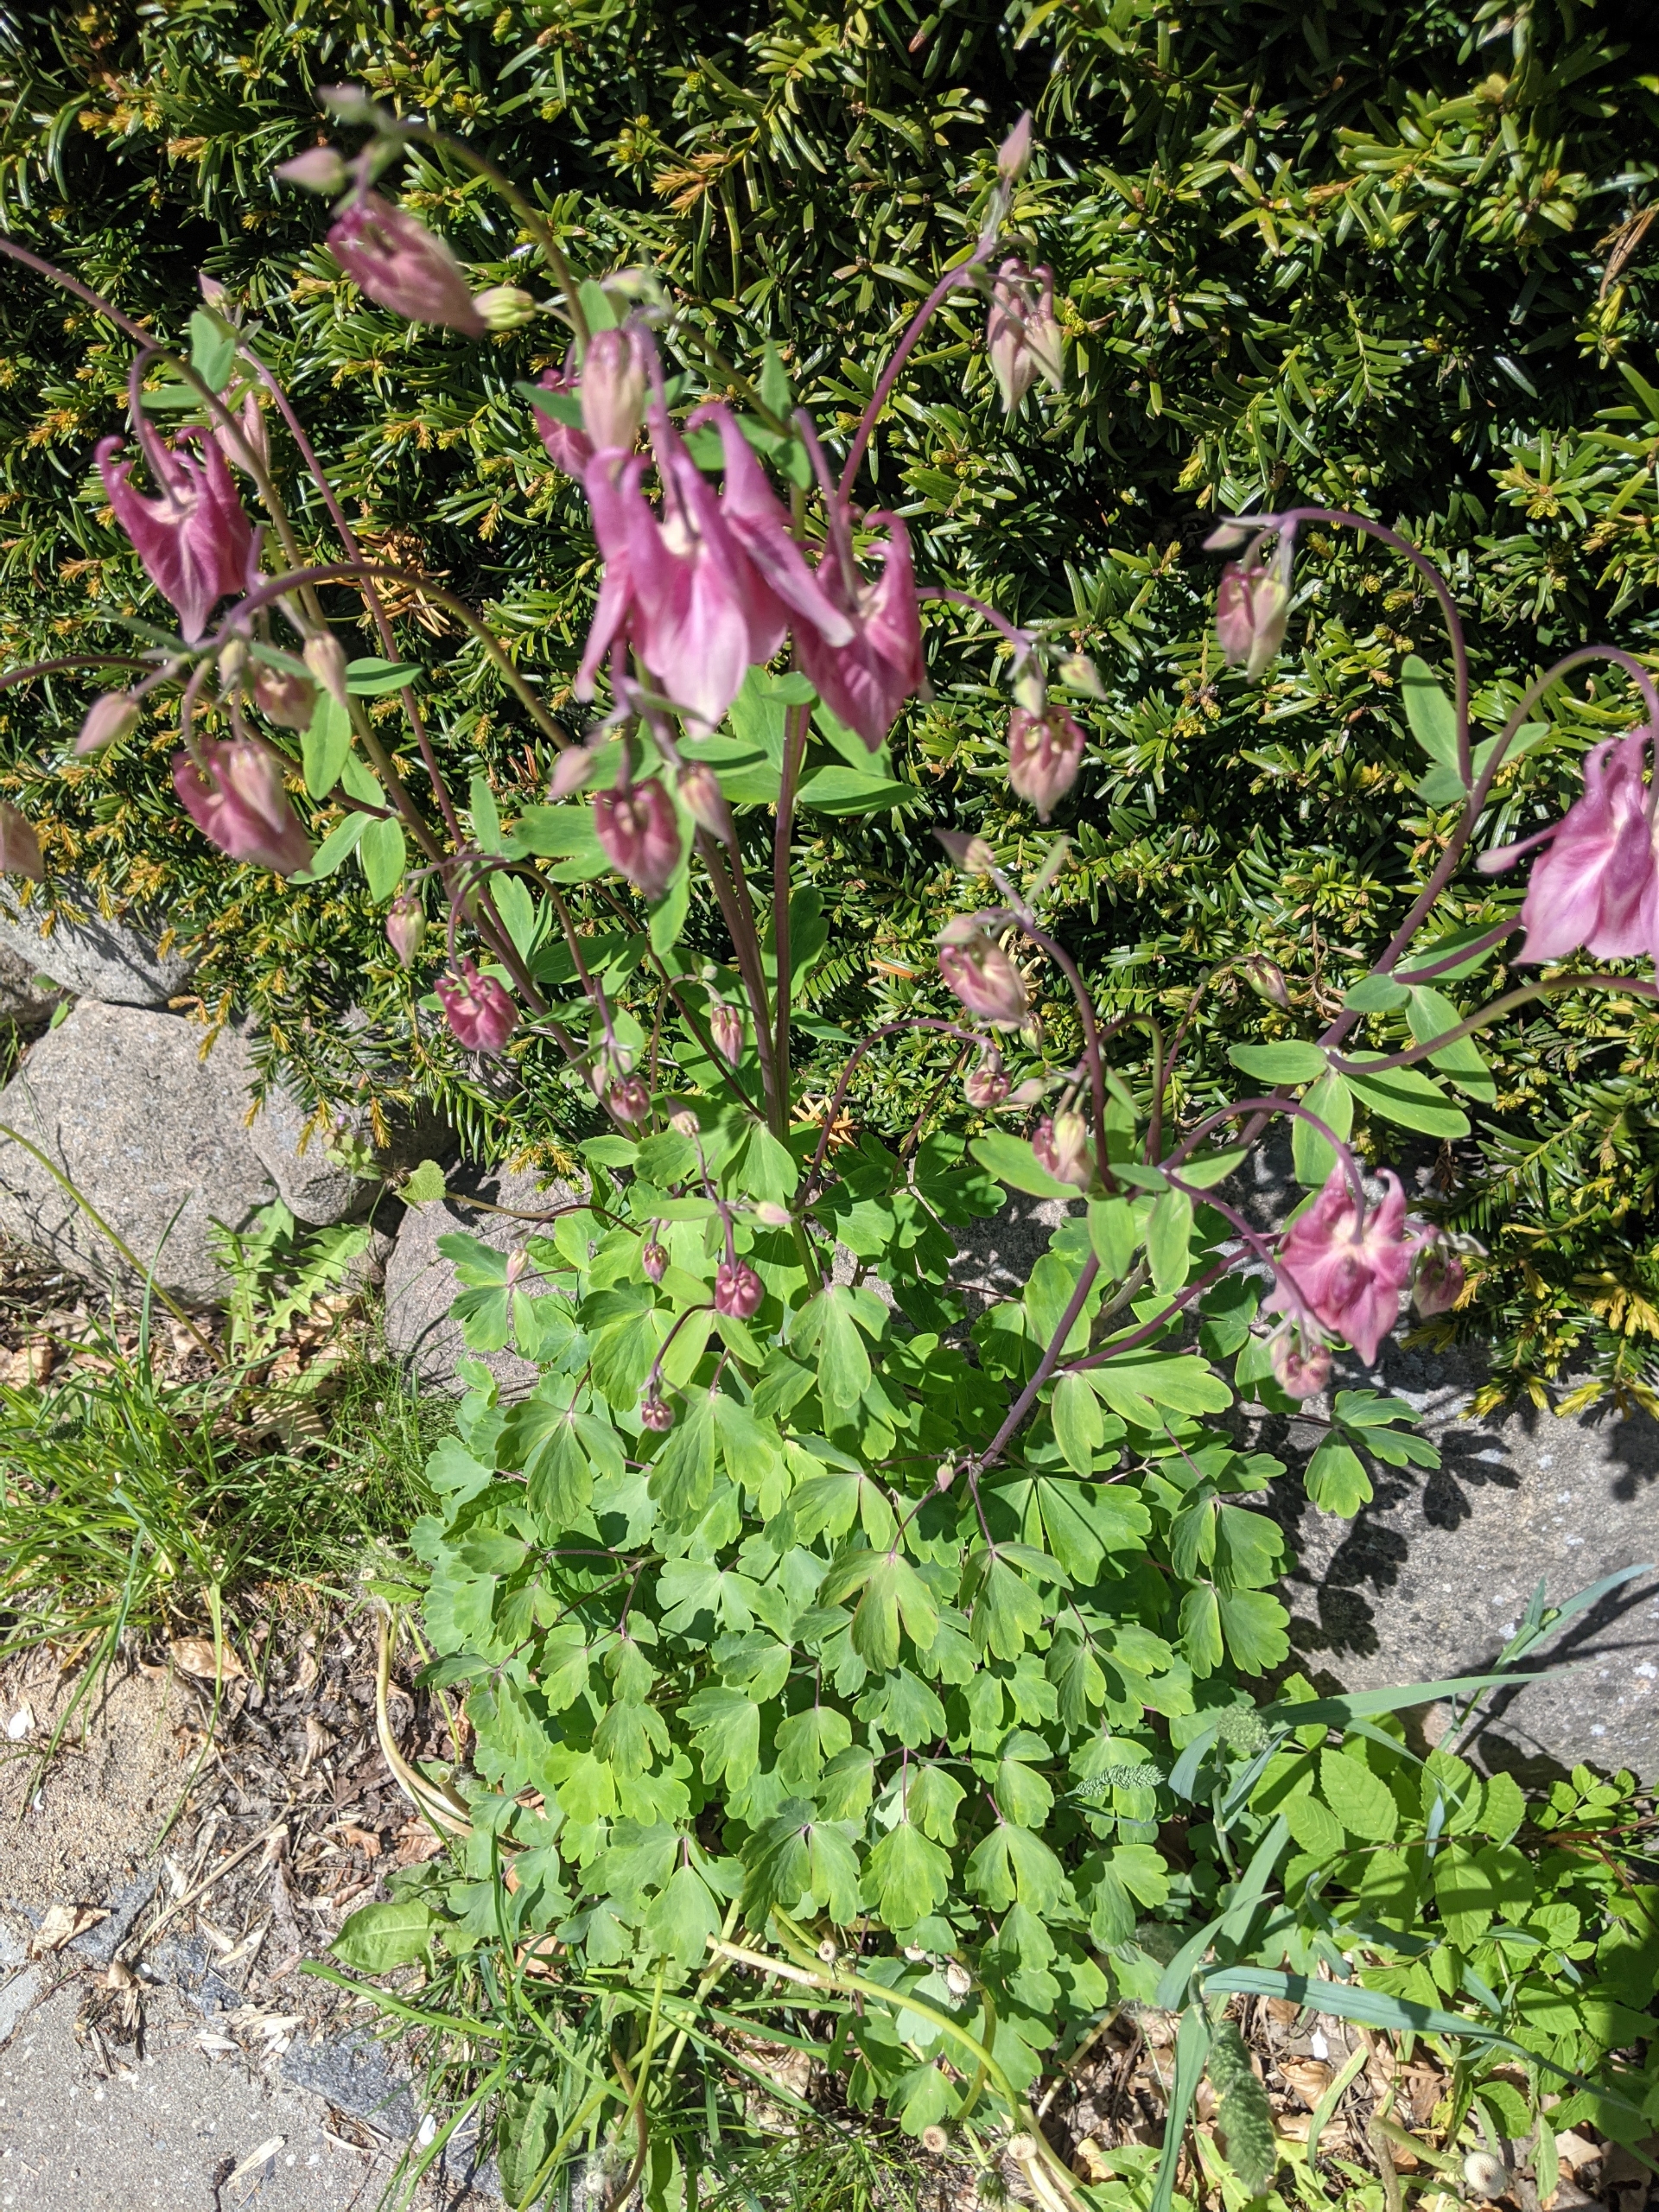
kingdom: Plantae
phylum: Tracheophyta
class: Magnoliopsida
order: Ranunculales
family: Ranunculaceae
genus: Aquilegia
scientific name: Aquilegia vulgaris
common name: Akeleje
